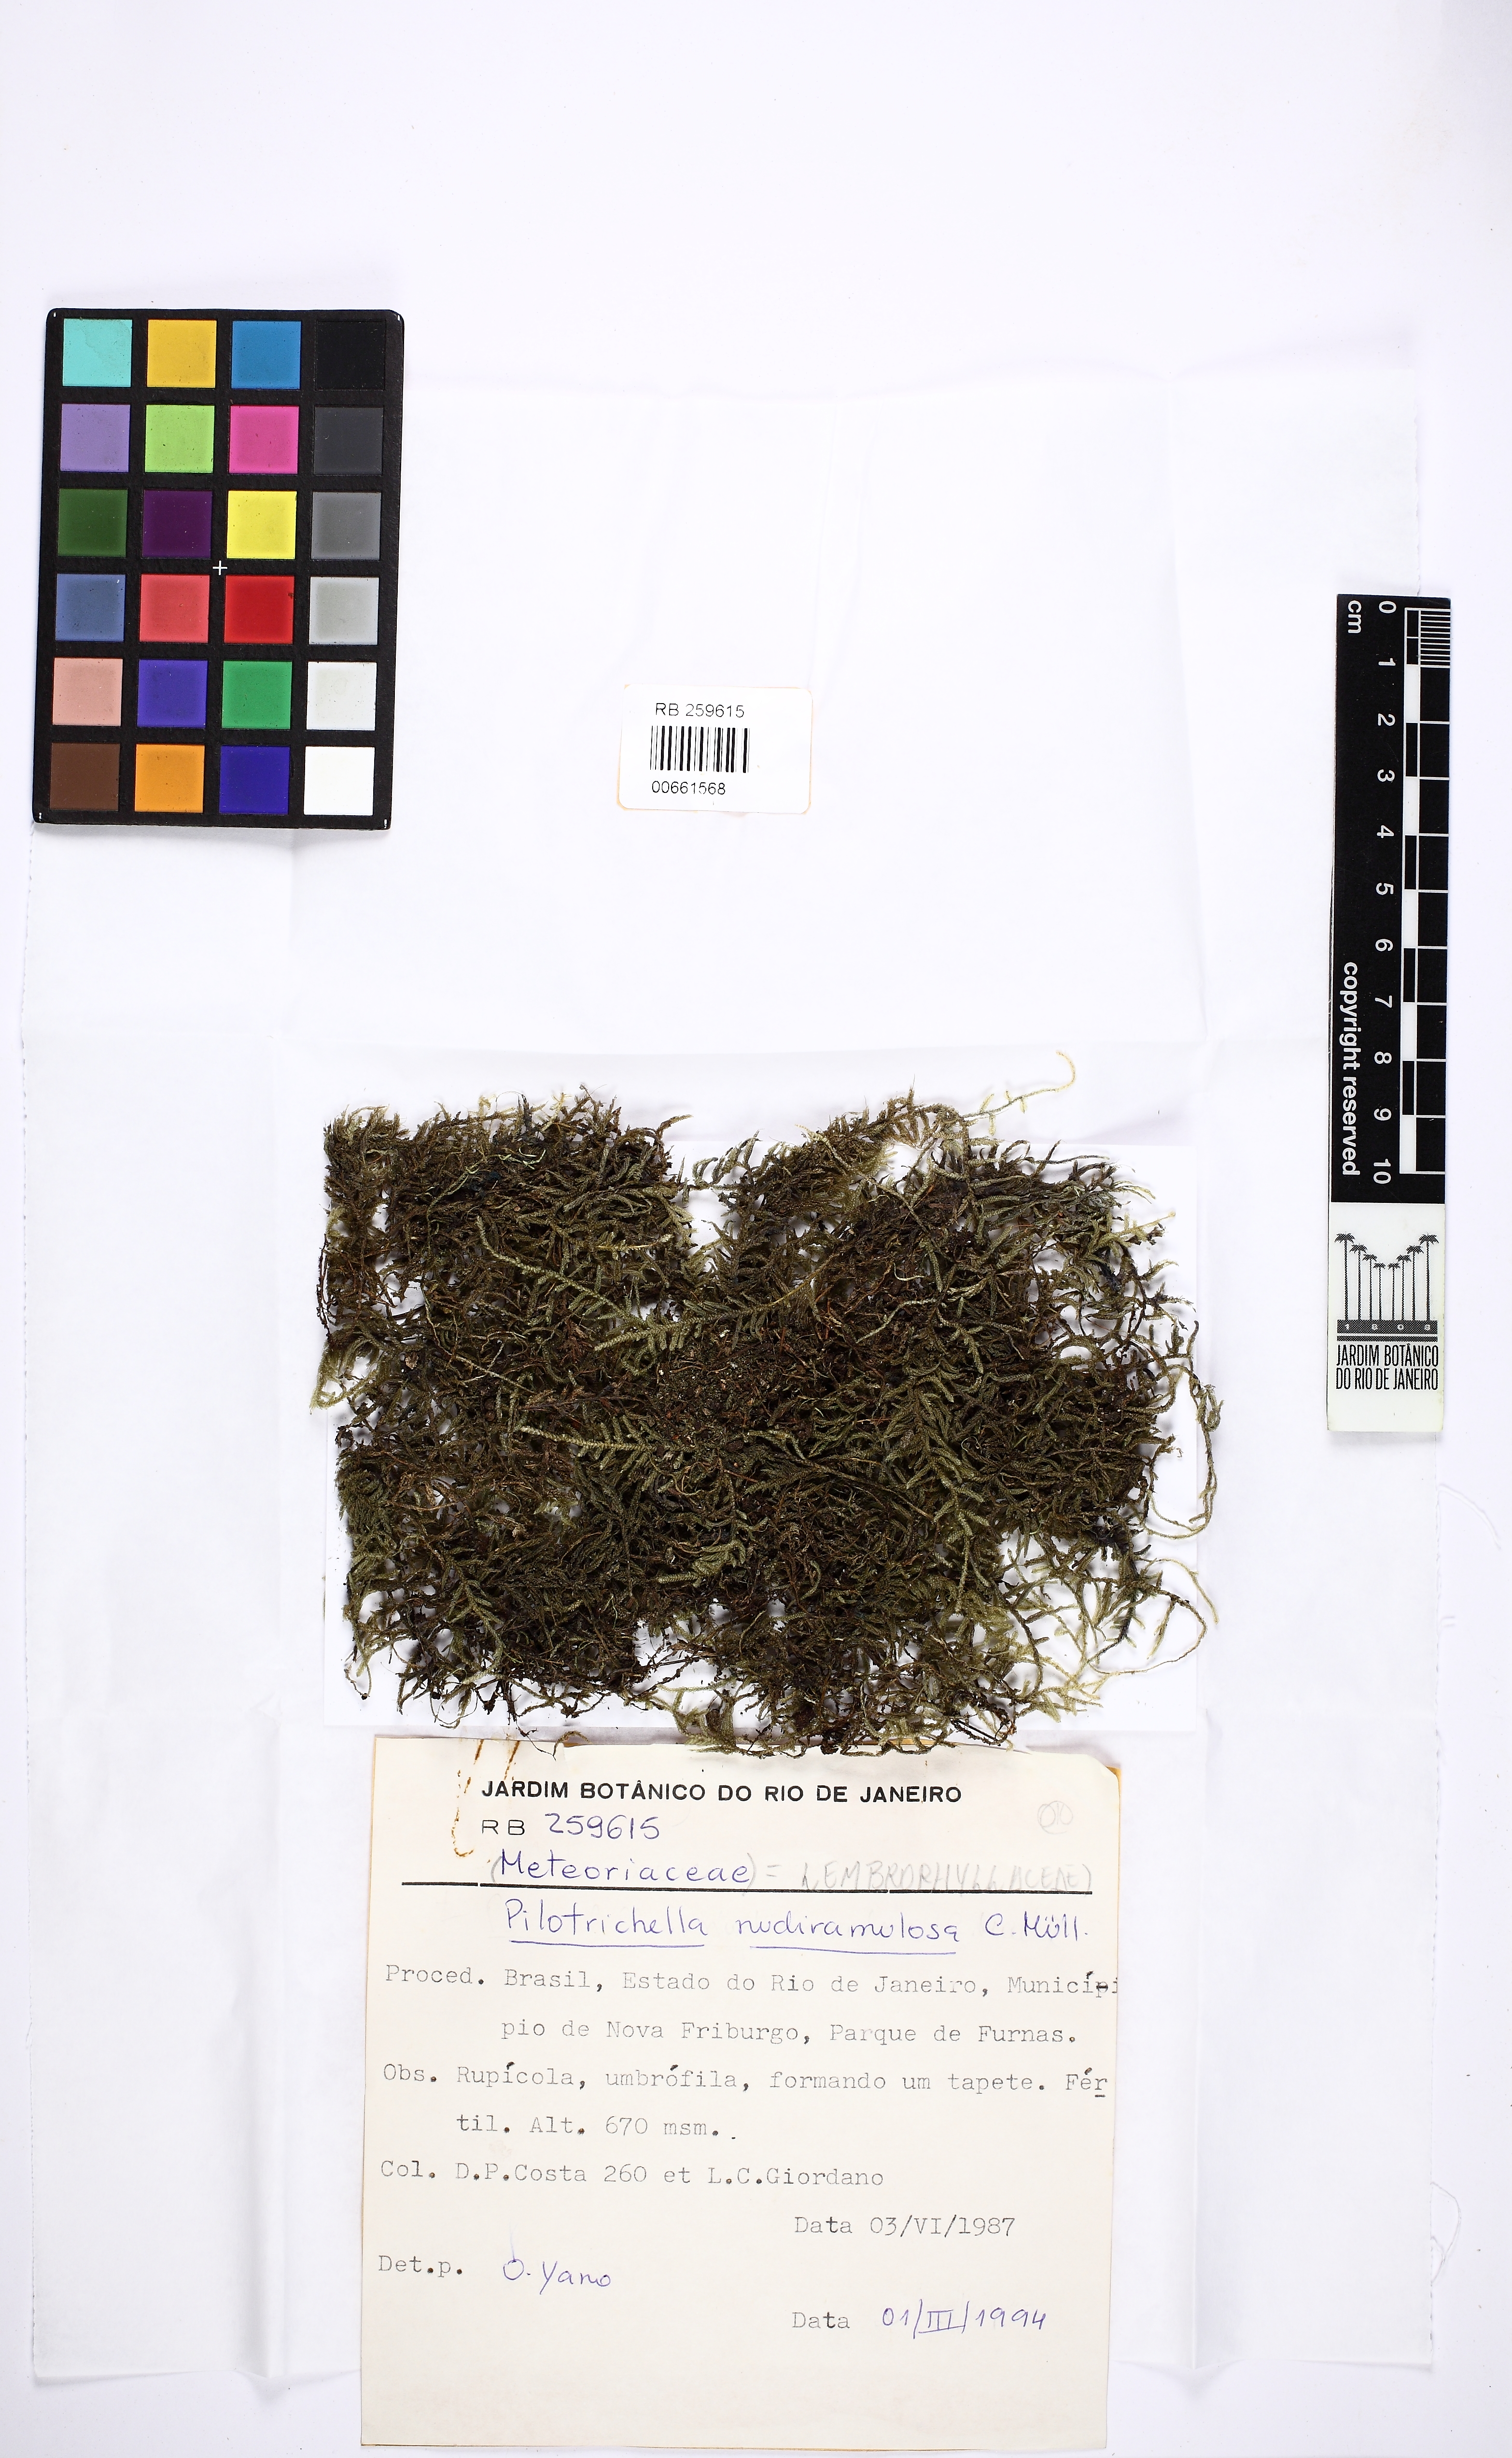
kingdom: Plantae
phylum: Bryophyta
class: Bryopsida
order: Hypnales
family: Lembophyllaceae
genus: Pilotrichella
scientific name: Pilotrichella flexilis
